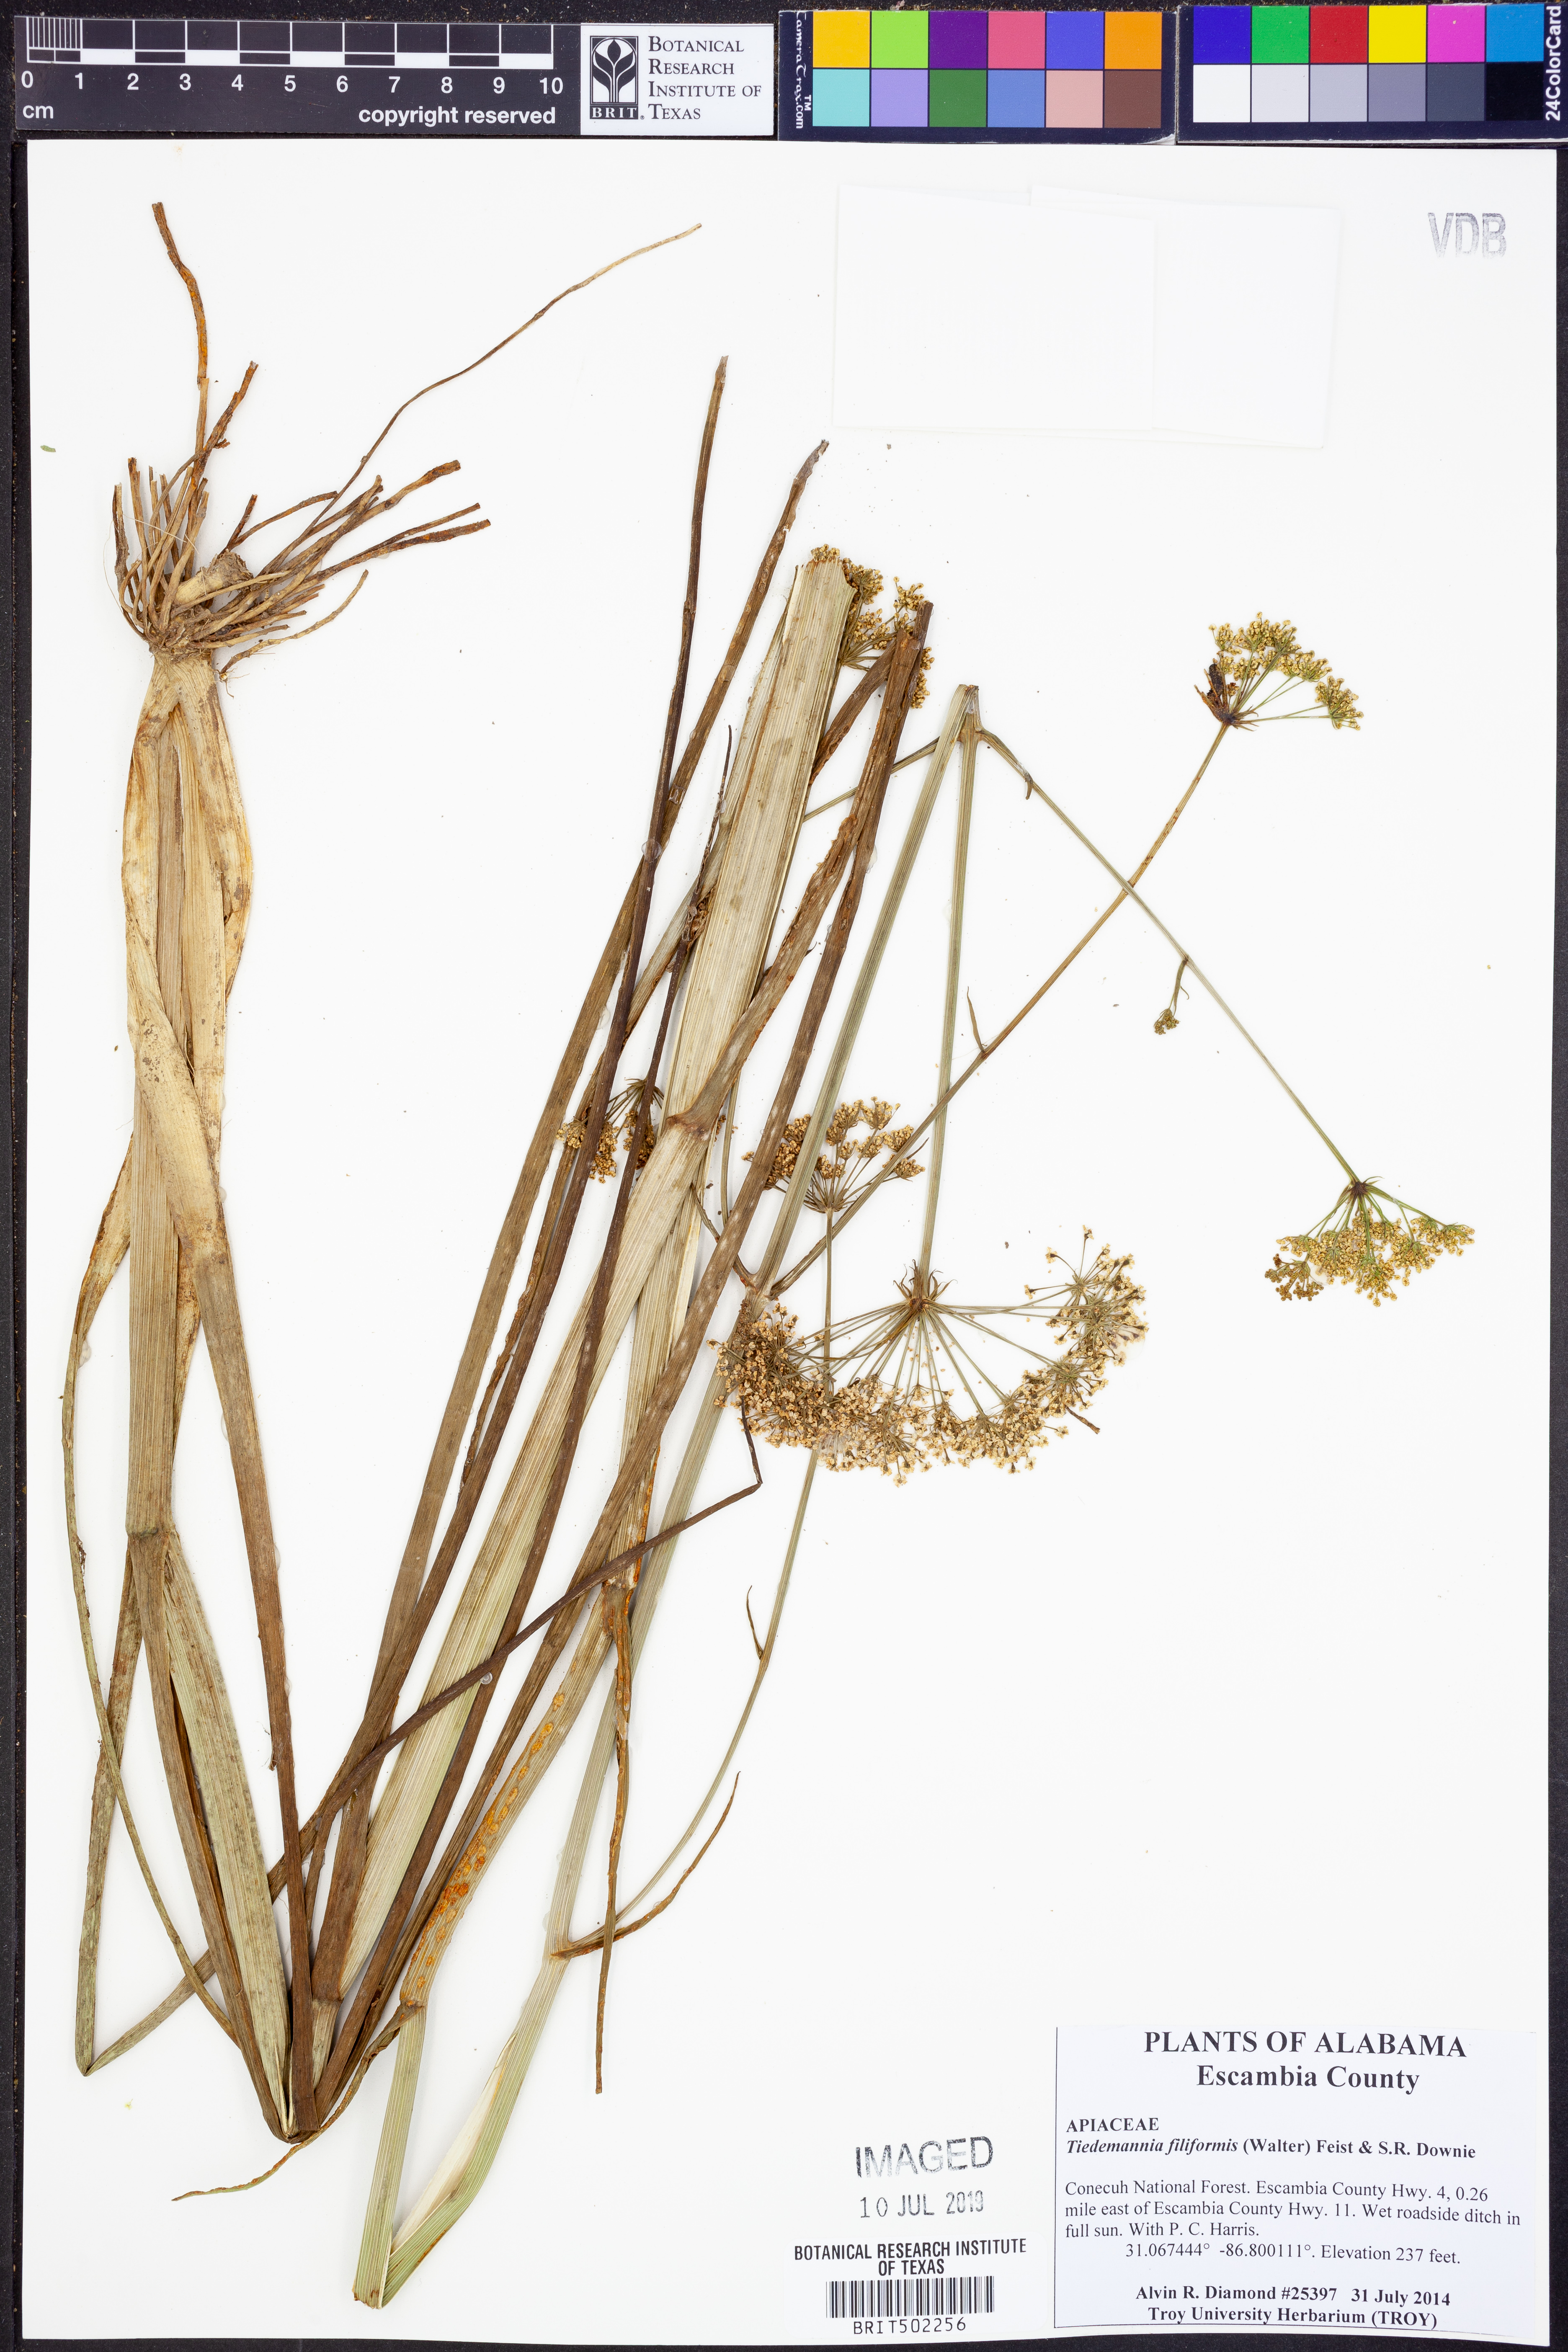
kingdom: Plantae
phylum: Tracheophyta
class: Magnoliopsida
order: Apiales
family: Apiaceae
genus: Tiedemannia
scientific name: Tiedemannia filiformis
